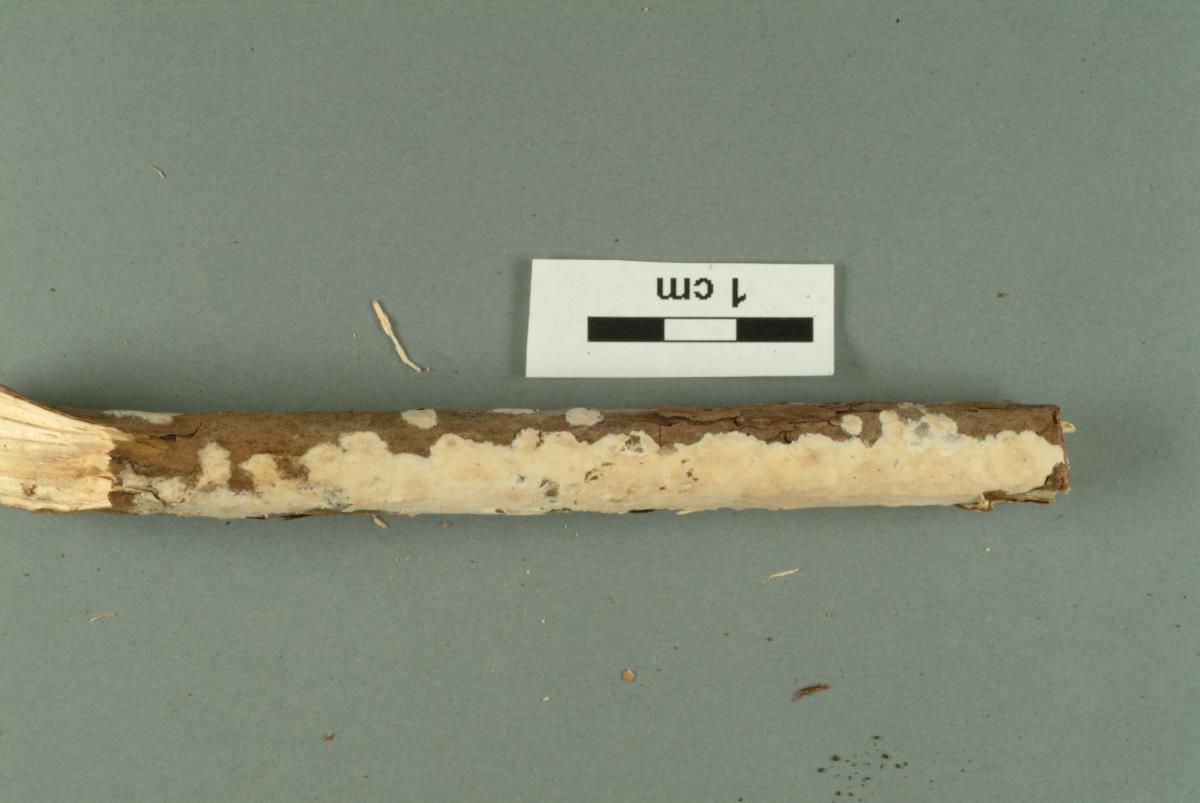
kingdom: Fungi
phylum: Basidiomycota
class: Agaricomycetes
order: Russulales
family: Stereaceae
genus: Aleurodiscus
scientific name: Aleurodiscus berggrenii
